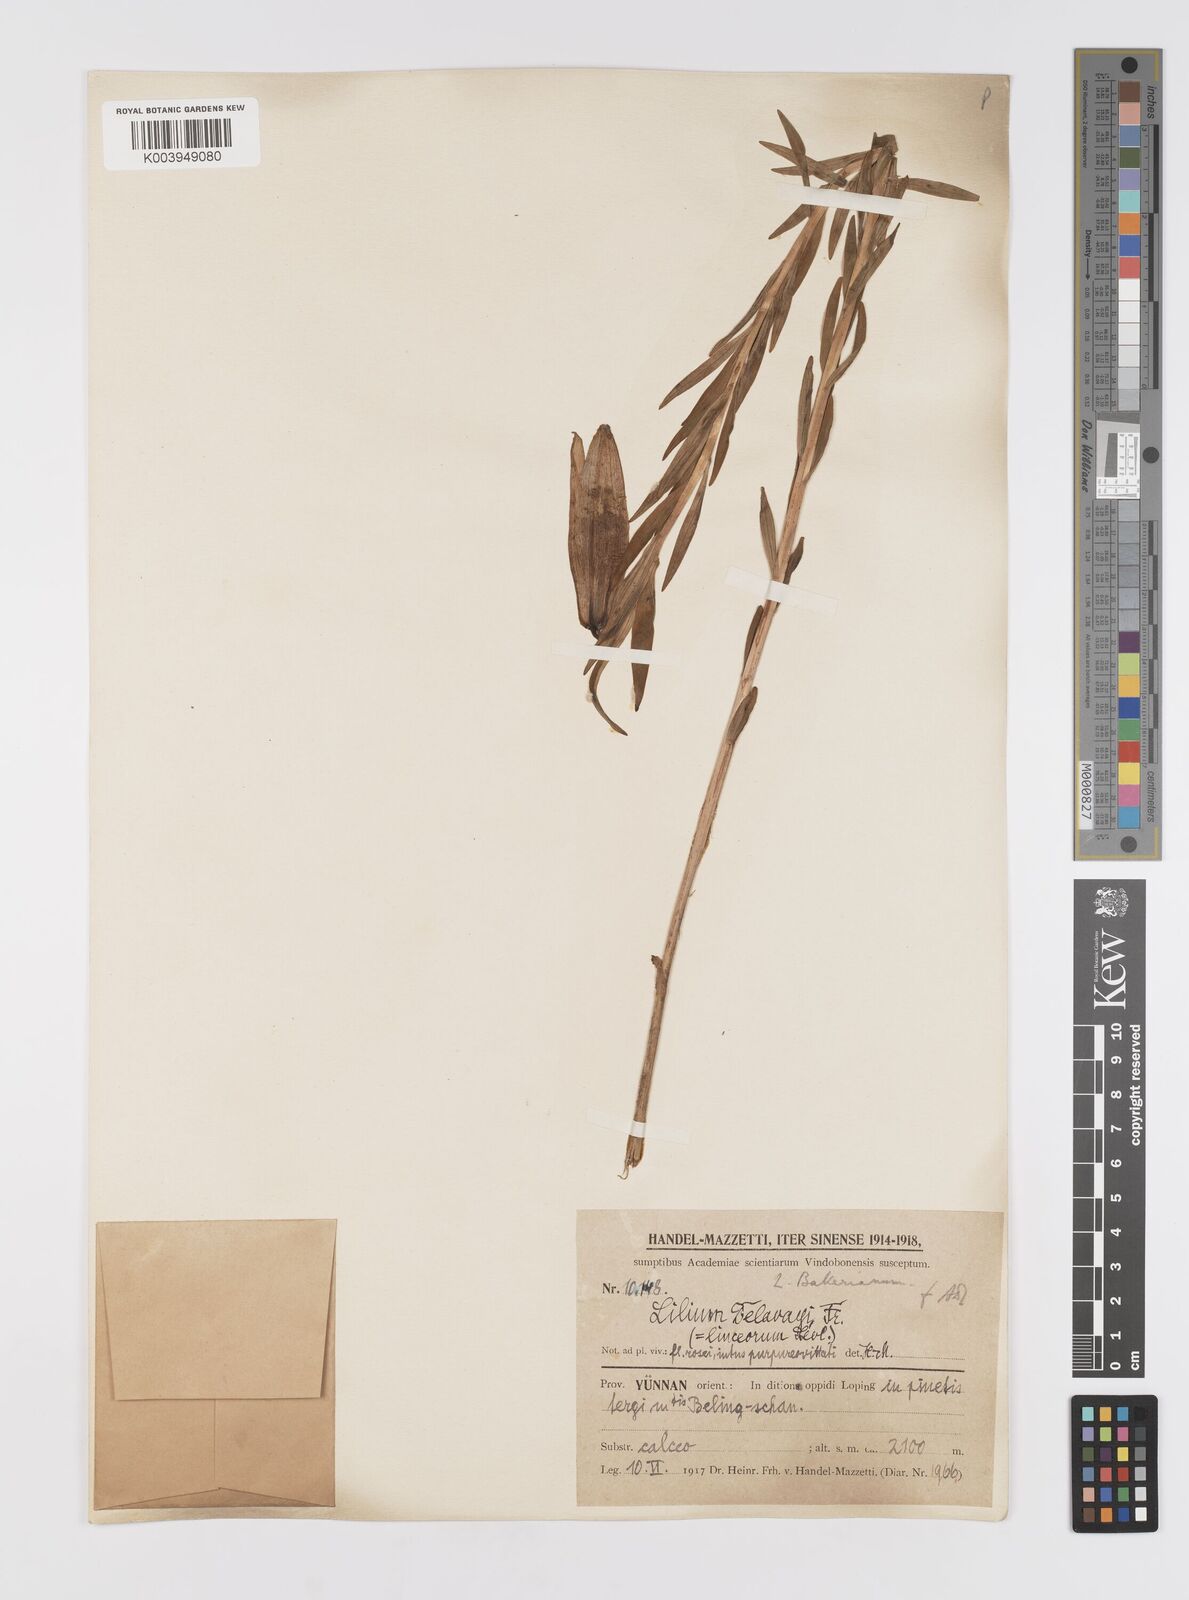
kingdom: Plantae
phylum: Tracheophyta
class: Liliopsida
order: Liliales
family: Liliaceae
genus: Lilium
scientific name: Lilium bakerianum
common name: Baker's lily
